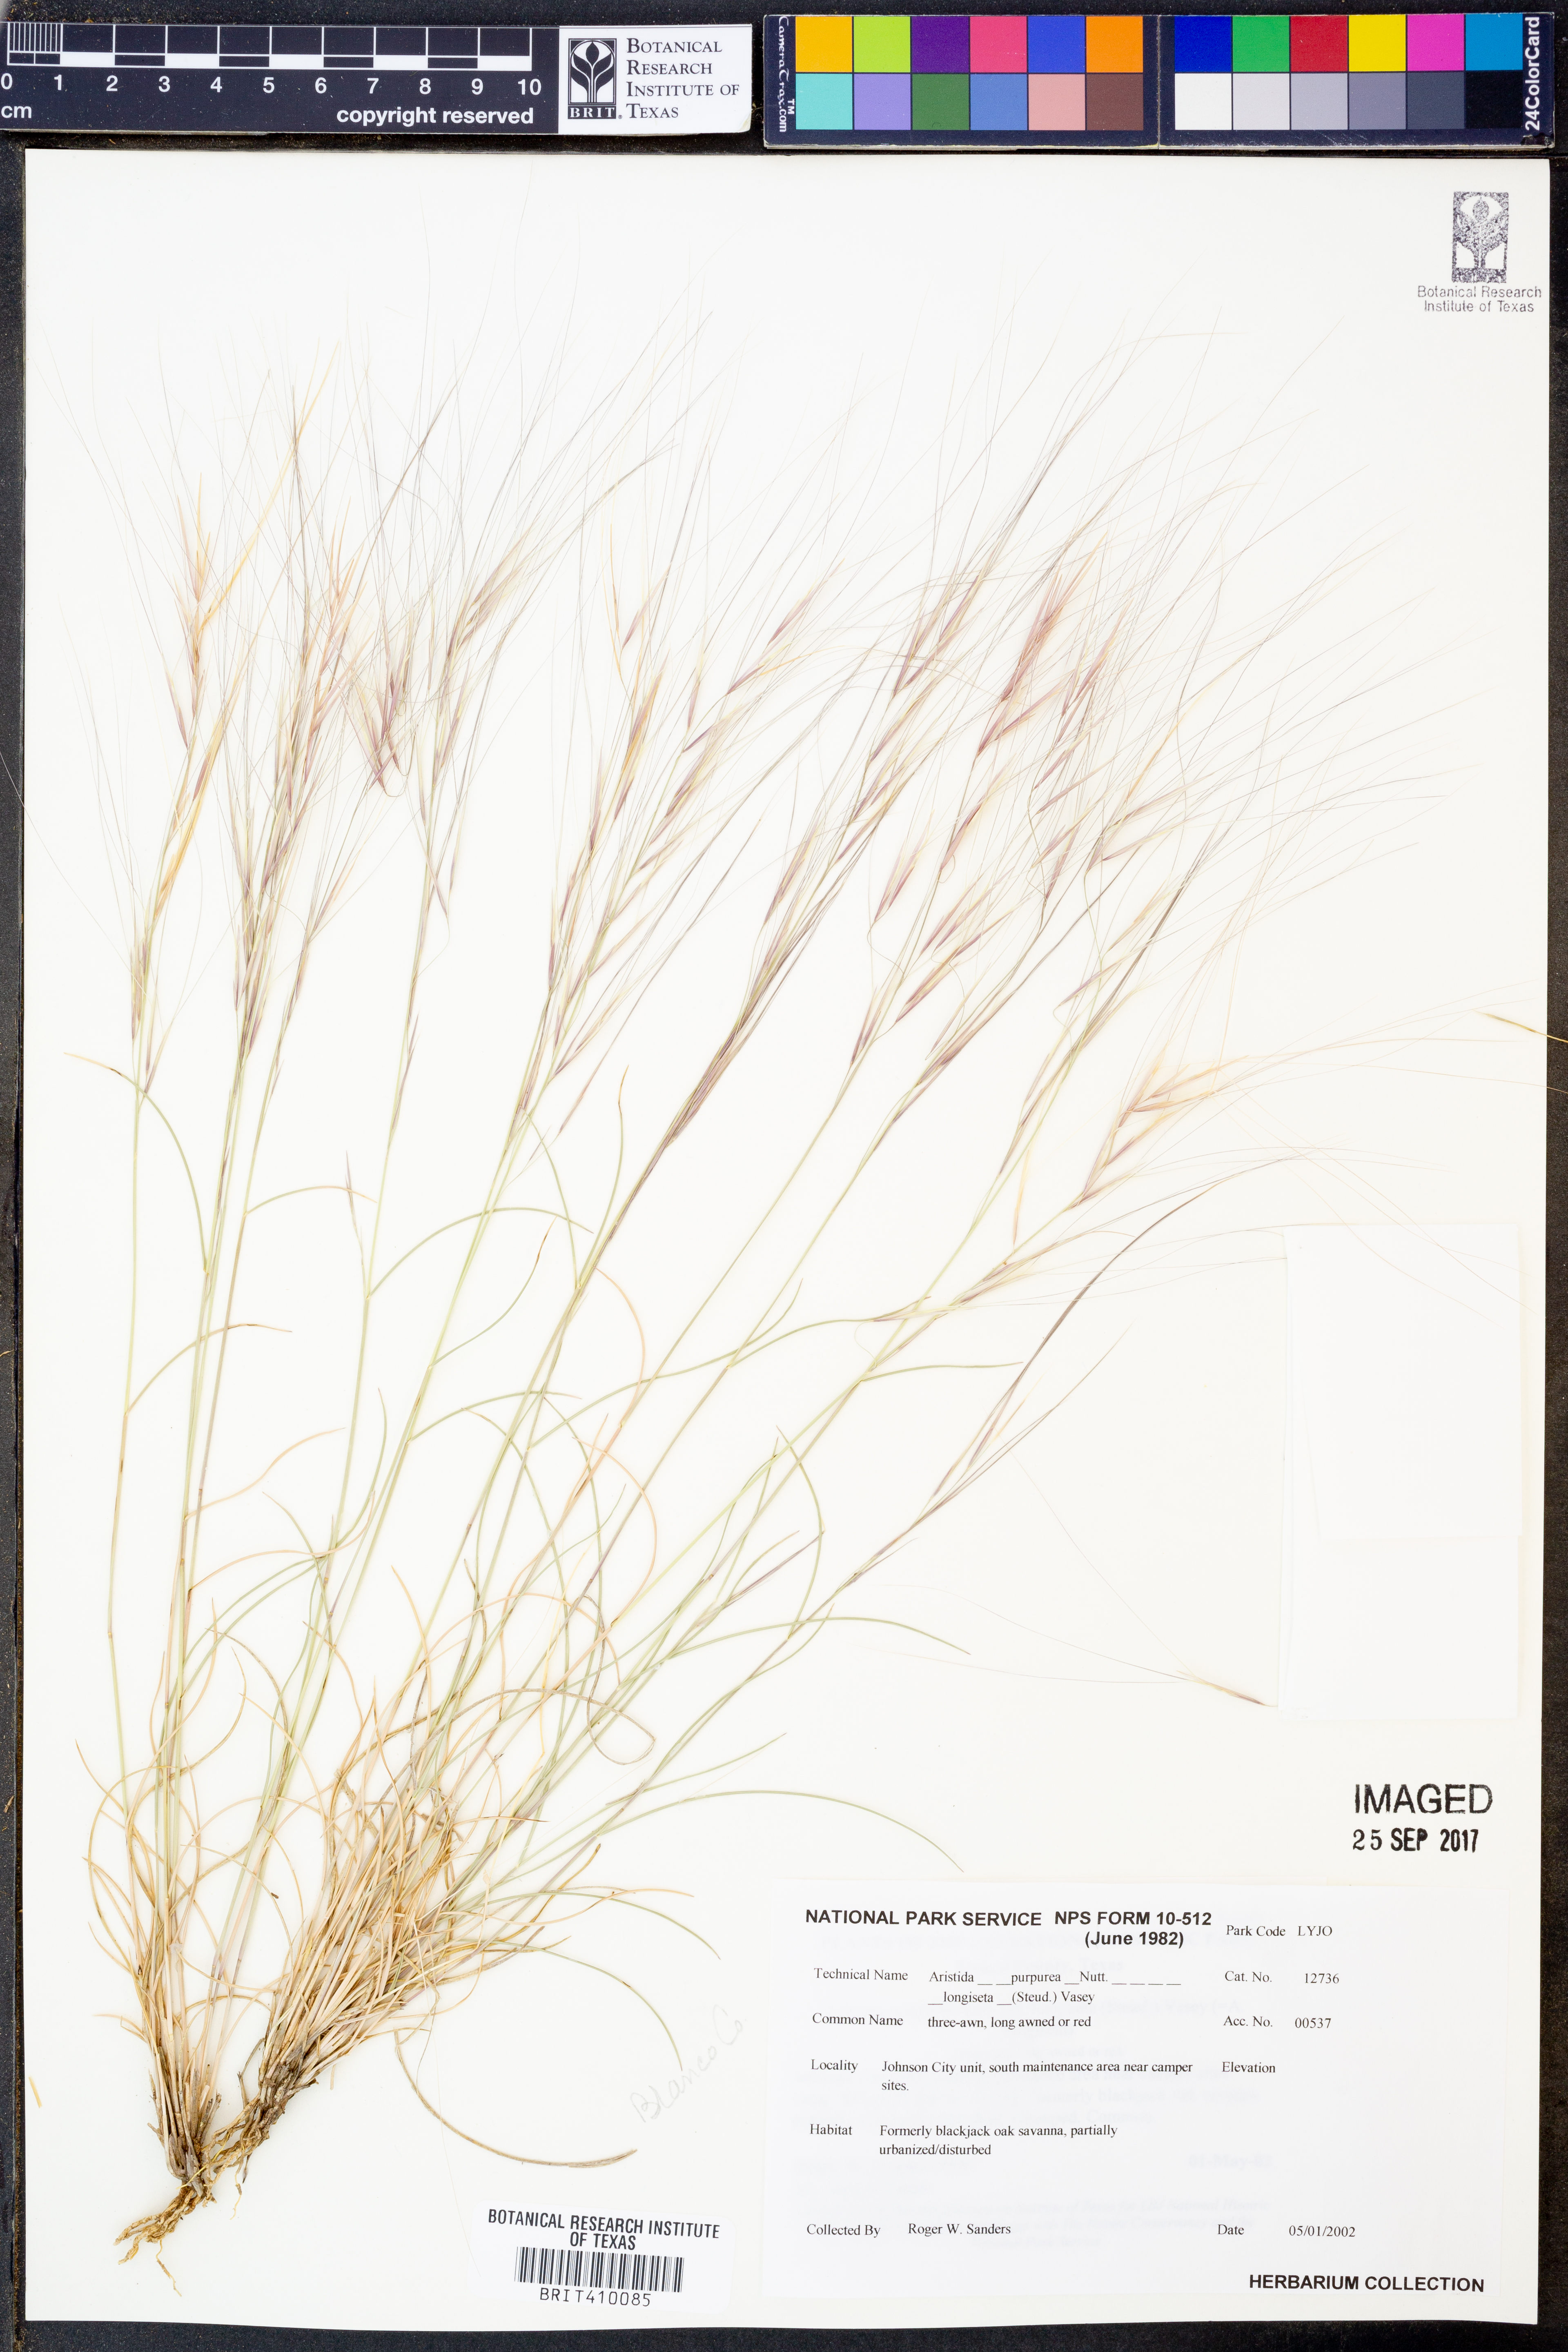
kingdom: Plantae
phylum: Tracheophyta
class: Liliopsida
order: Poales
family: Poaceae
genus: Aristida
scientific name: Aristida longiseta
